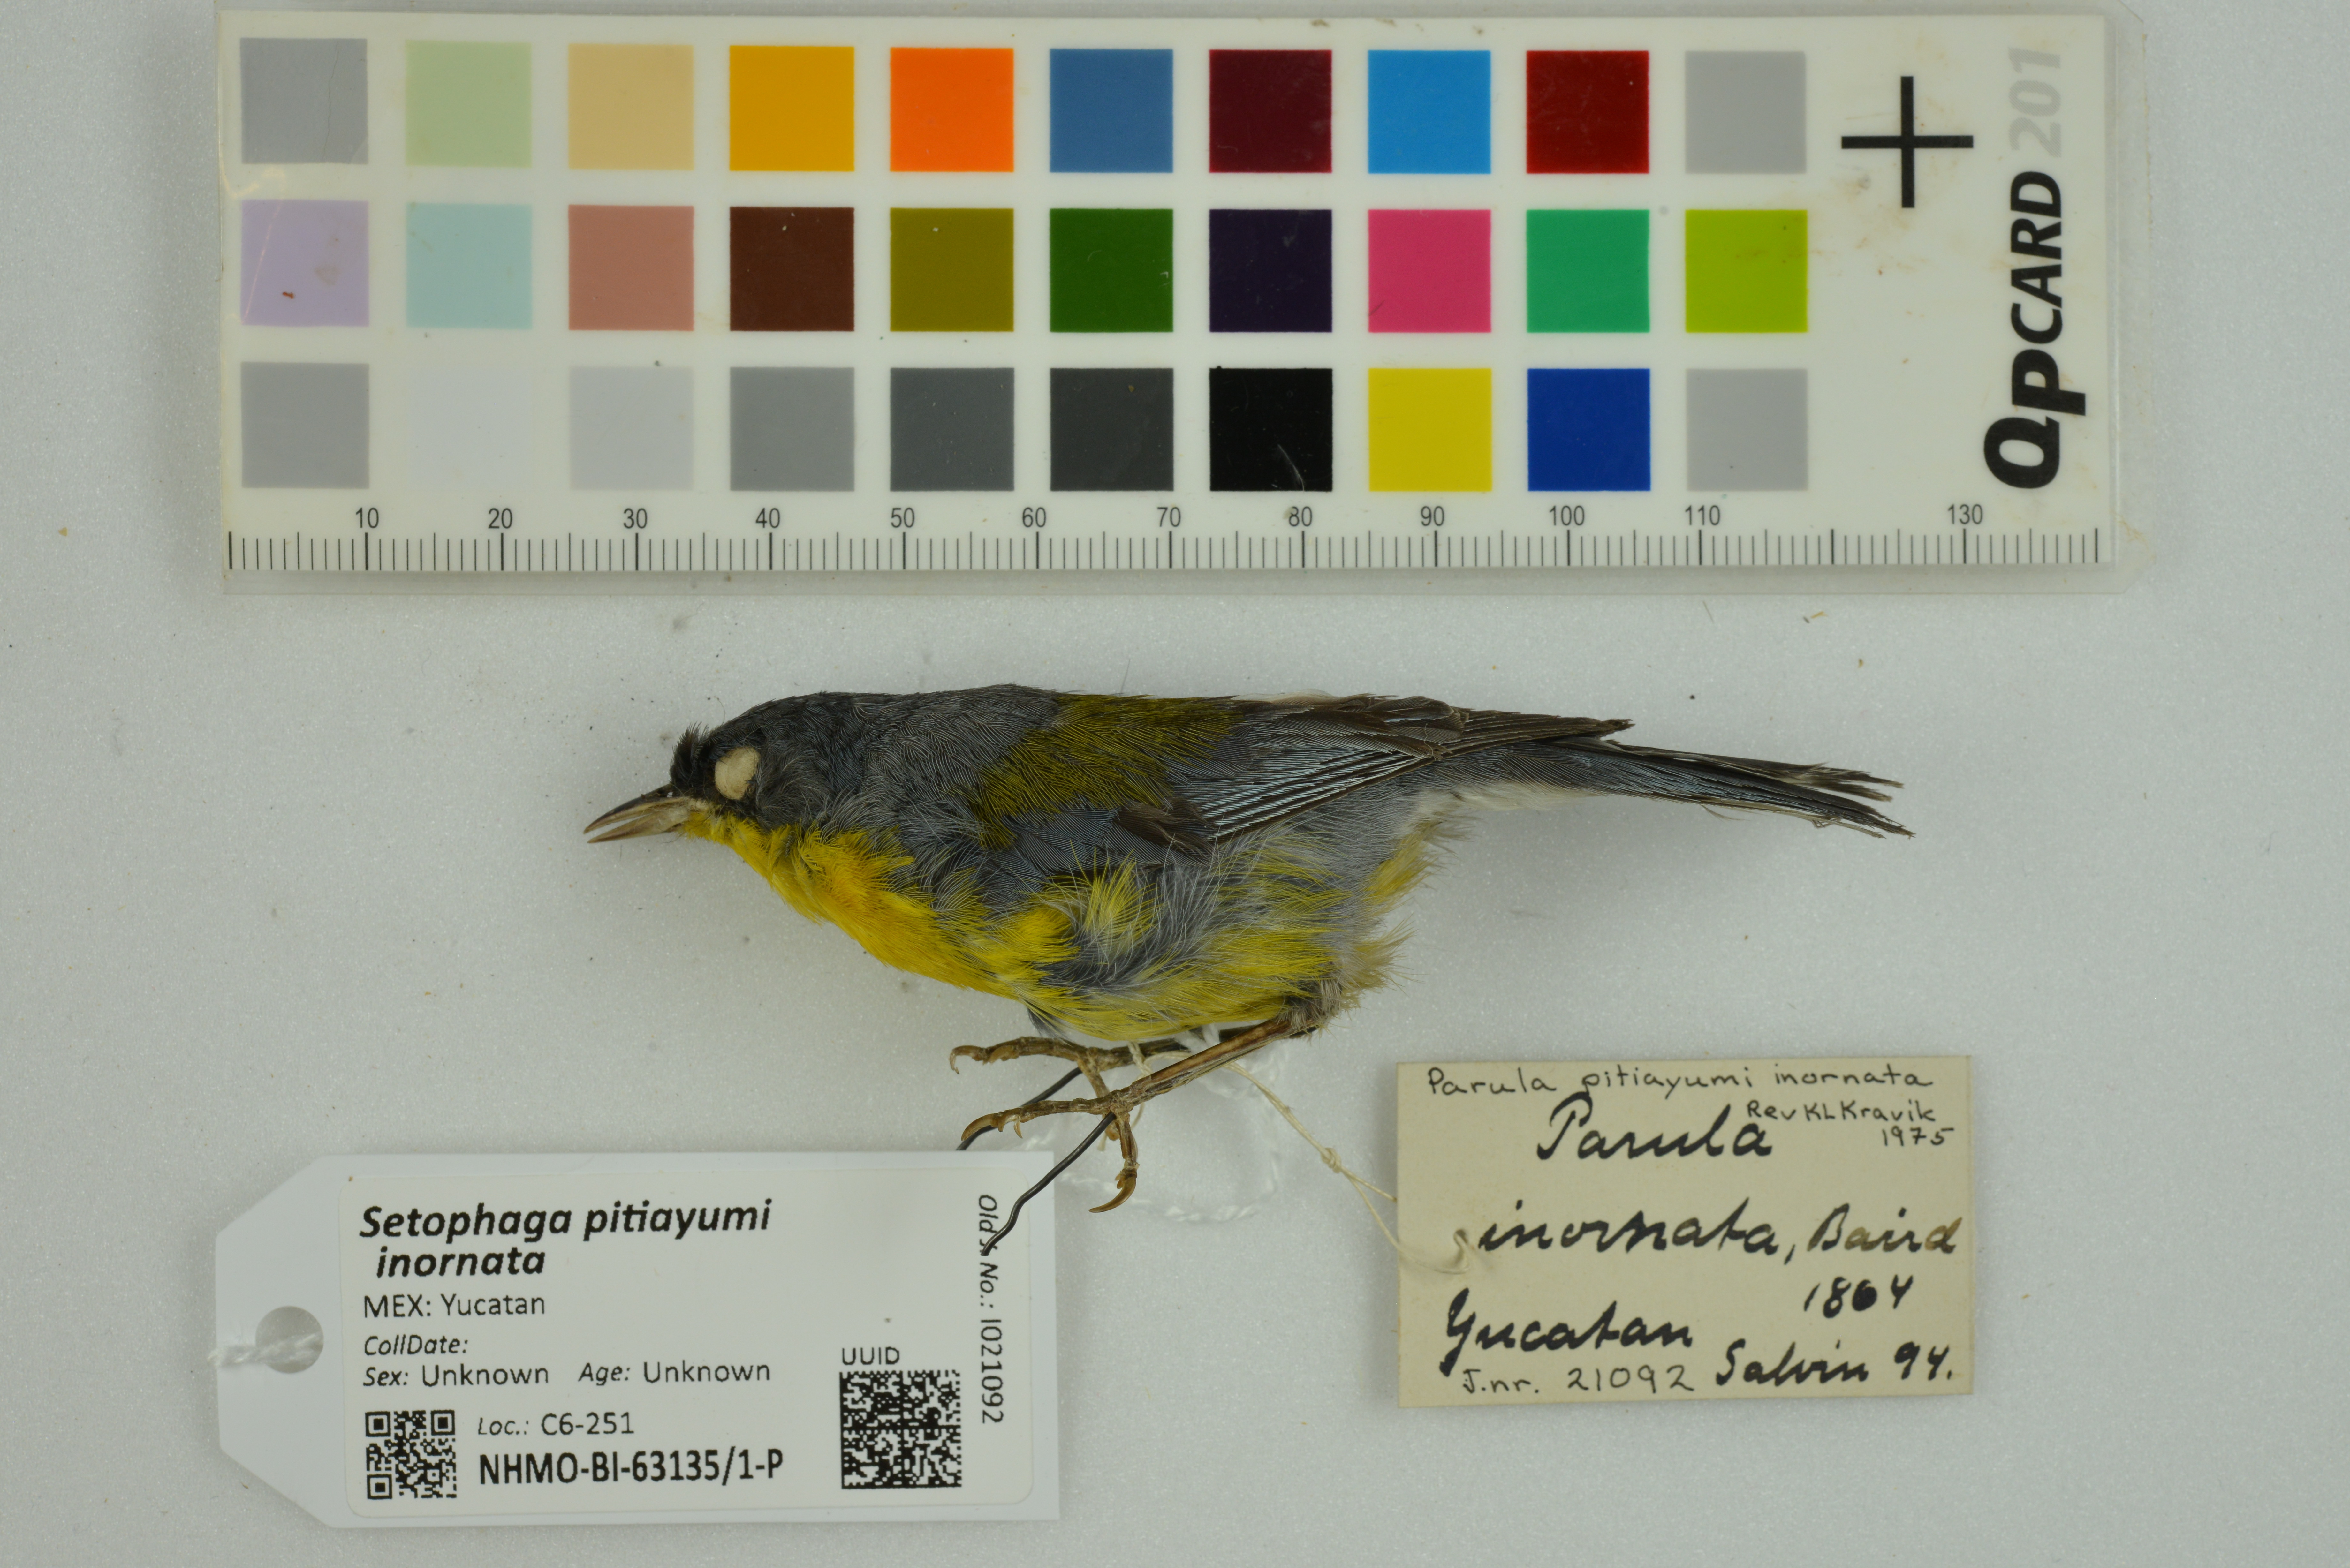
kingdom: Animalia
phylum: Chordata
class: Aves
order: Passeriformes
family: Parulidae
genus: Setophaga
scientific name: Setophaga pitiayumi
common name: Tropical parula
